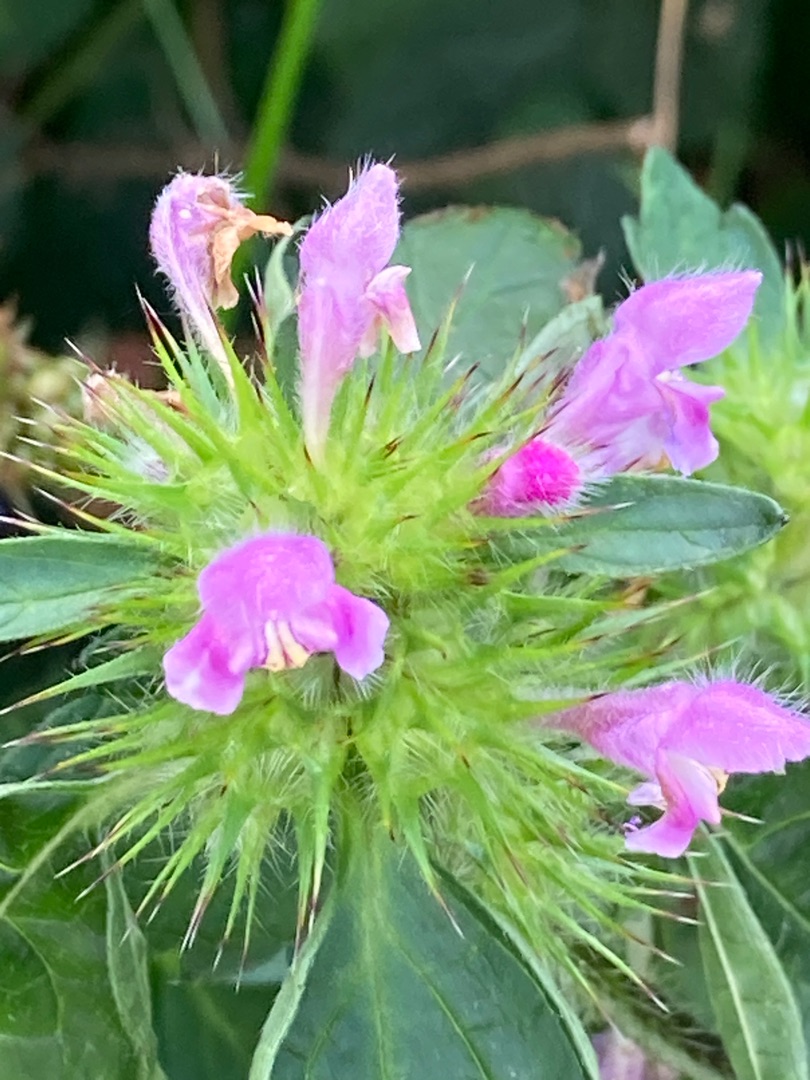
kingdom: Plantae
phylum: Tracheophyta
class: Magnoliopsida
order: Lamiales
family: Lamiaceae
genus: Galeopsis
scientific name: Galeopsis tetrahit
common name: Almindelig hanekro
